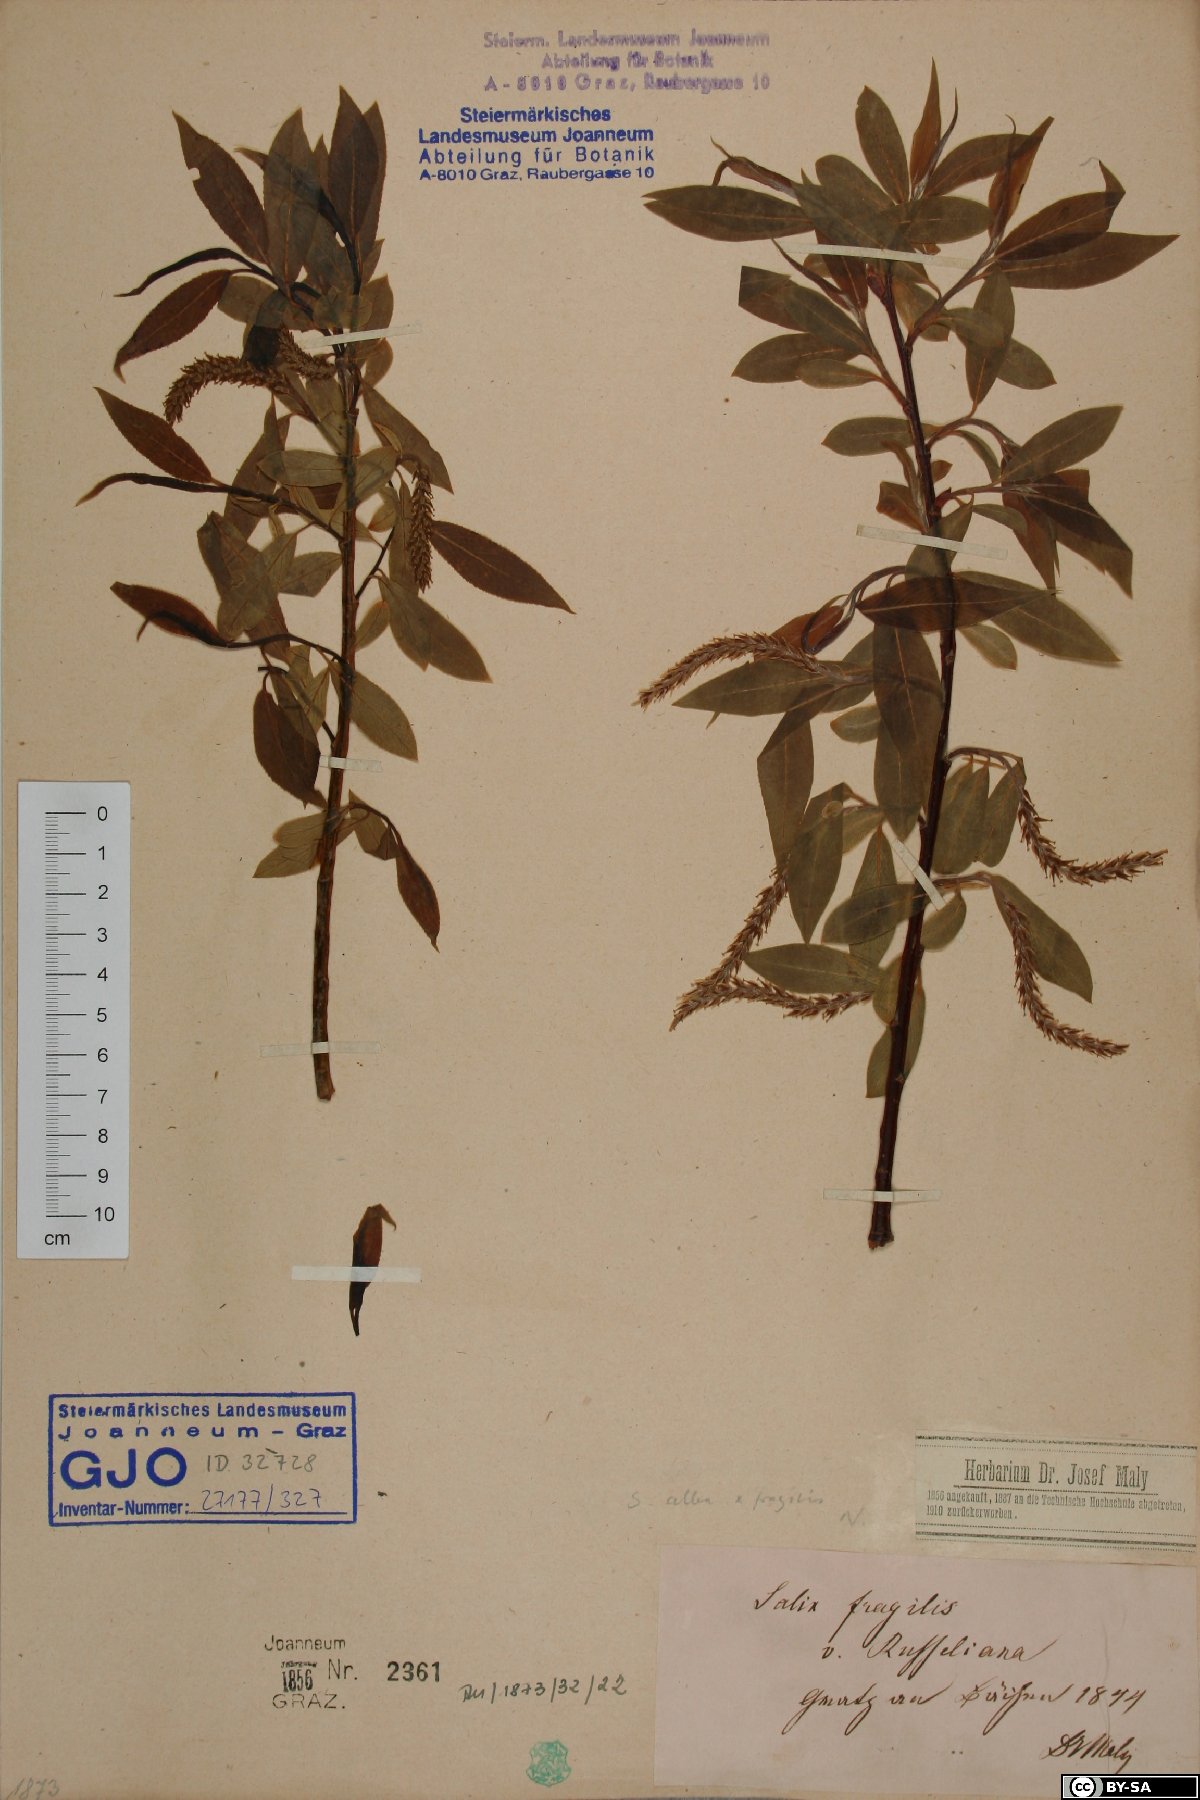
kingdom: Plantae
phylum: Tracheophyta
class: Magnoliopsida
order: Malpighiales
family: Salicaceae
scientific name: Salicaceae
